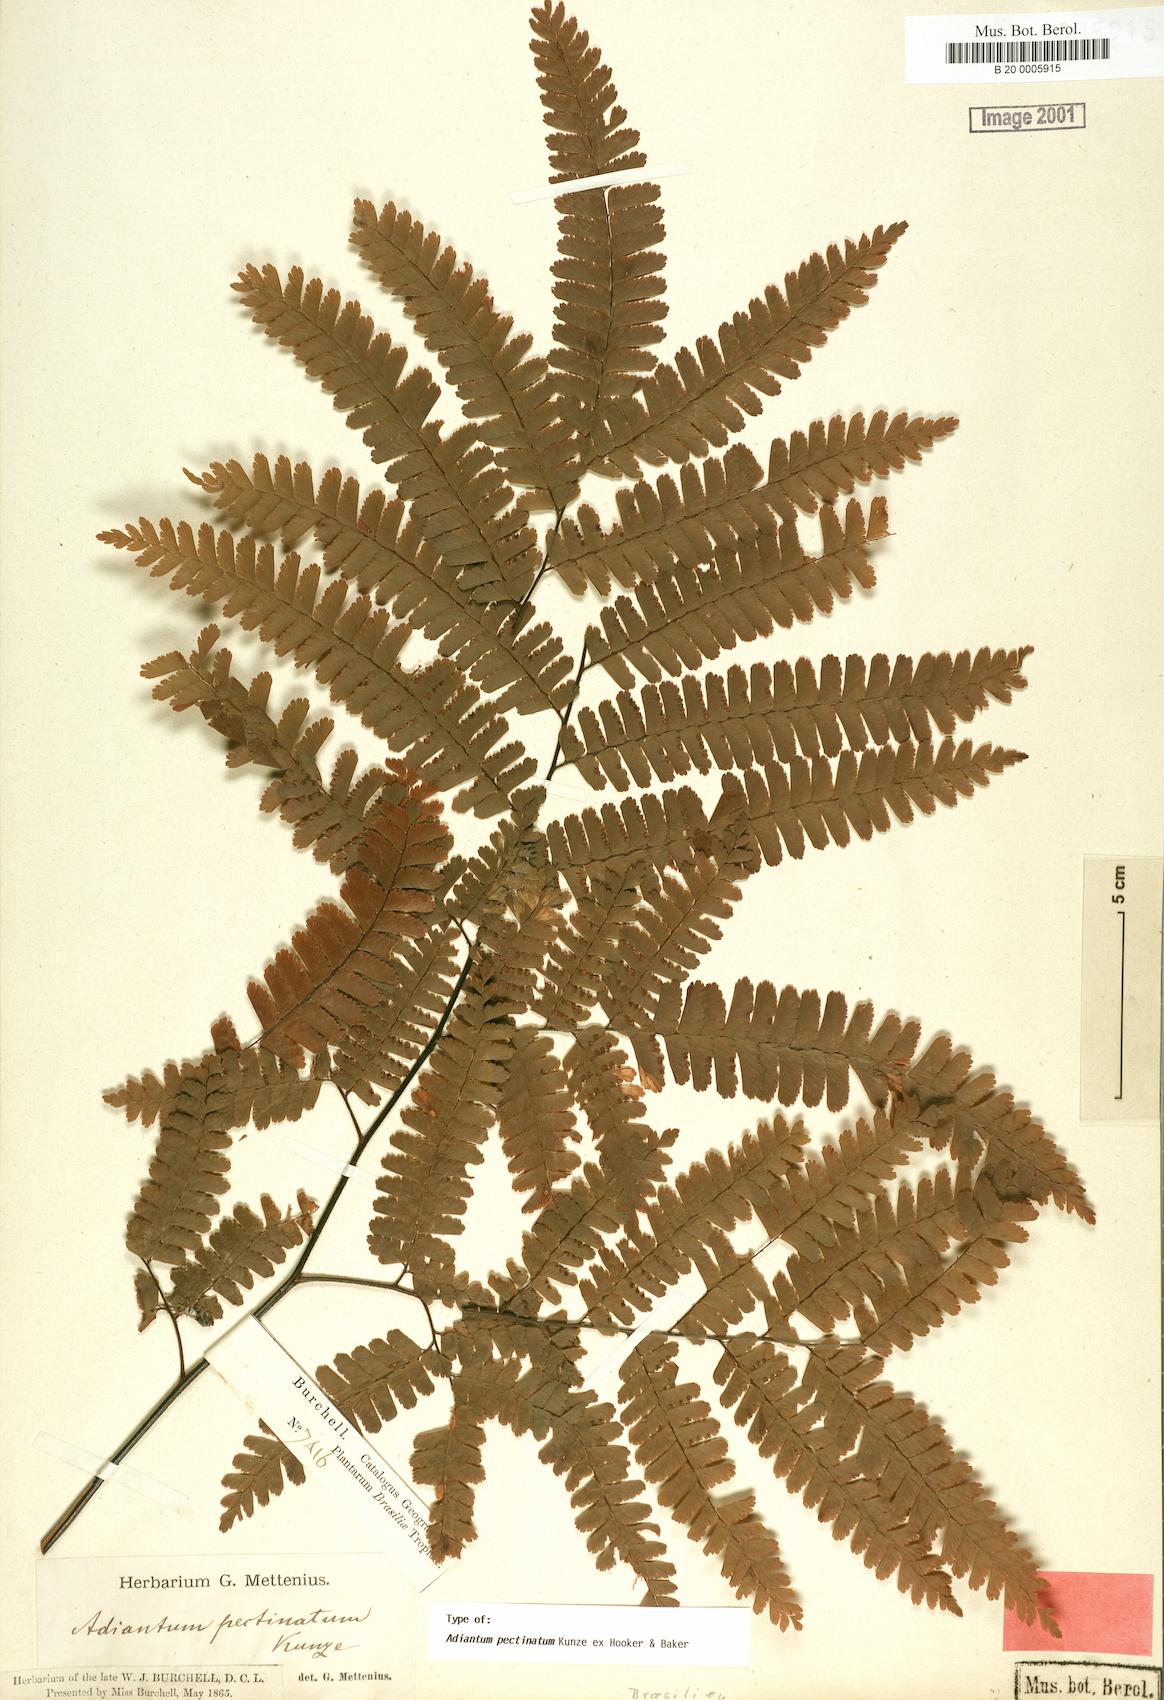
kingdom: Plantae
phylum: Tracheophyta
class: Polypodiopsida
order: Polypodiales
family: Pteridaceae
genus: Adiantum
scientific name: Adiantum pectinatum
